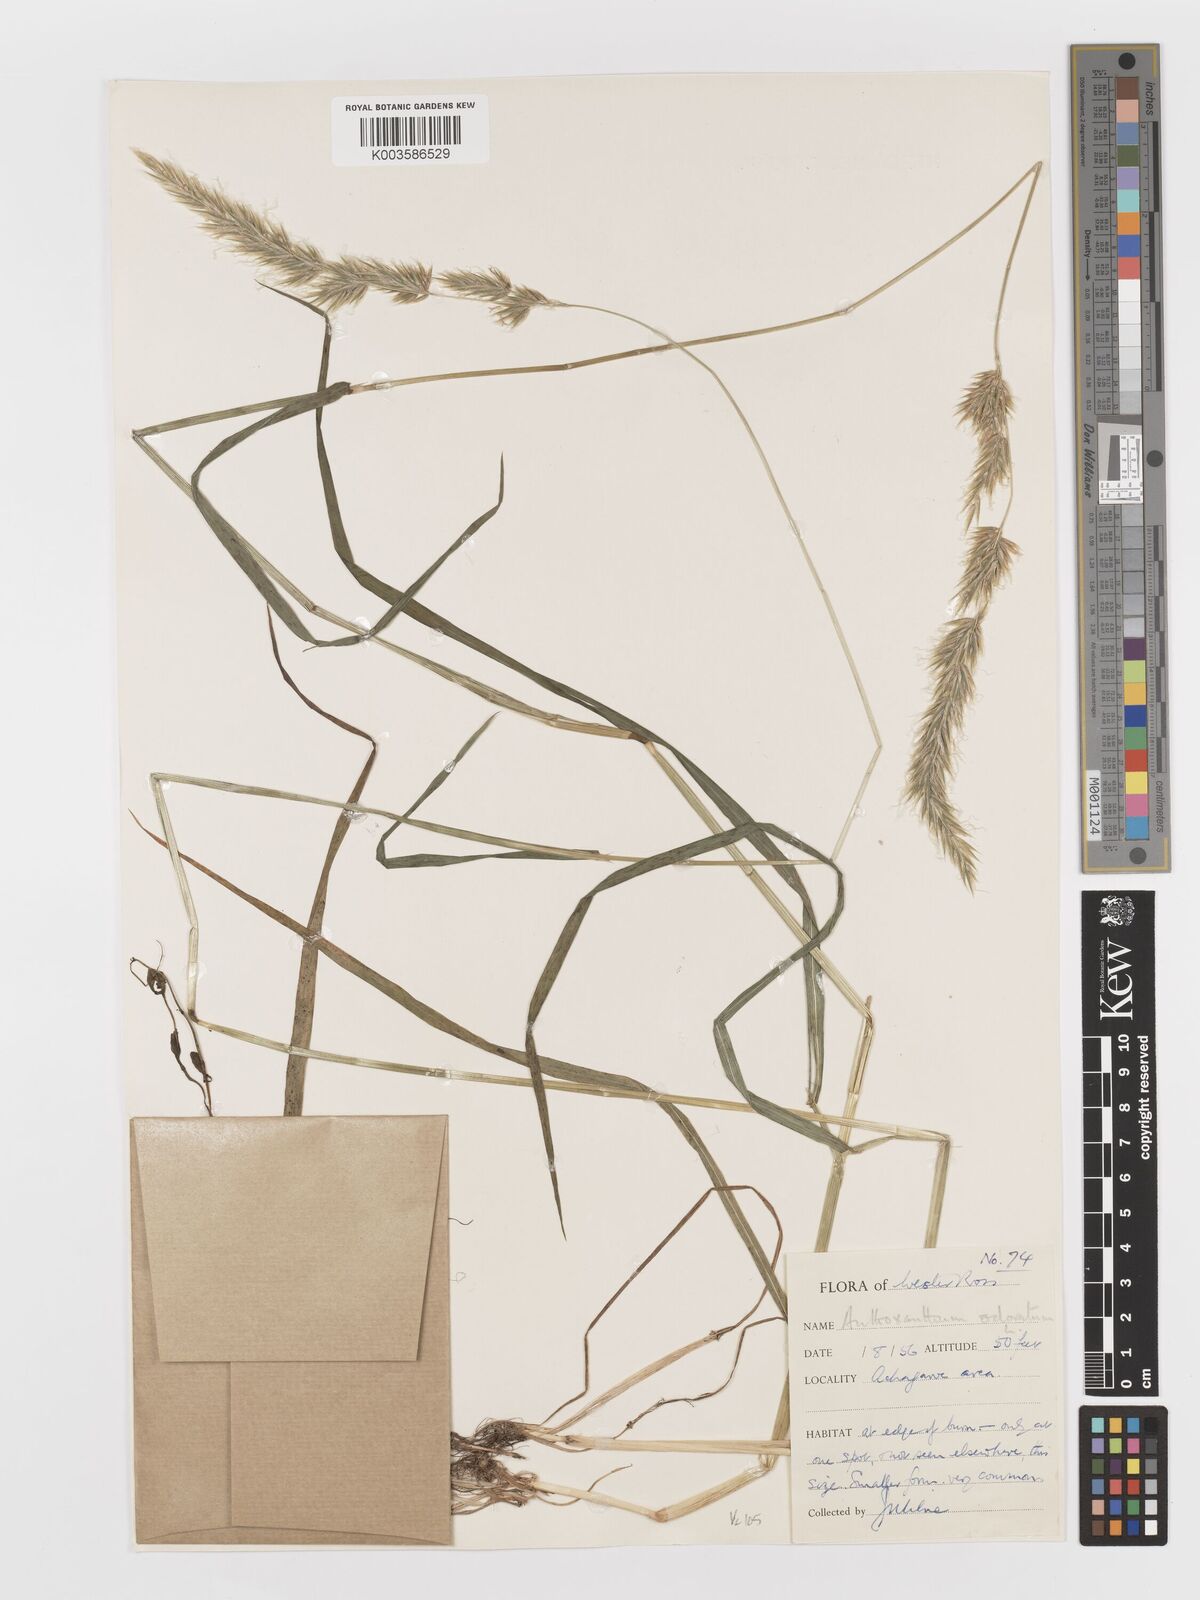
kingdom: Plantae
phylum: Tracheophyta
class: Liliopsida
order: Poales
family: Poaceae
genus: Anthoxanthum
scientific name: Anthoxanthum odoratum
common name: Sweet vernalgrass
